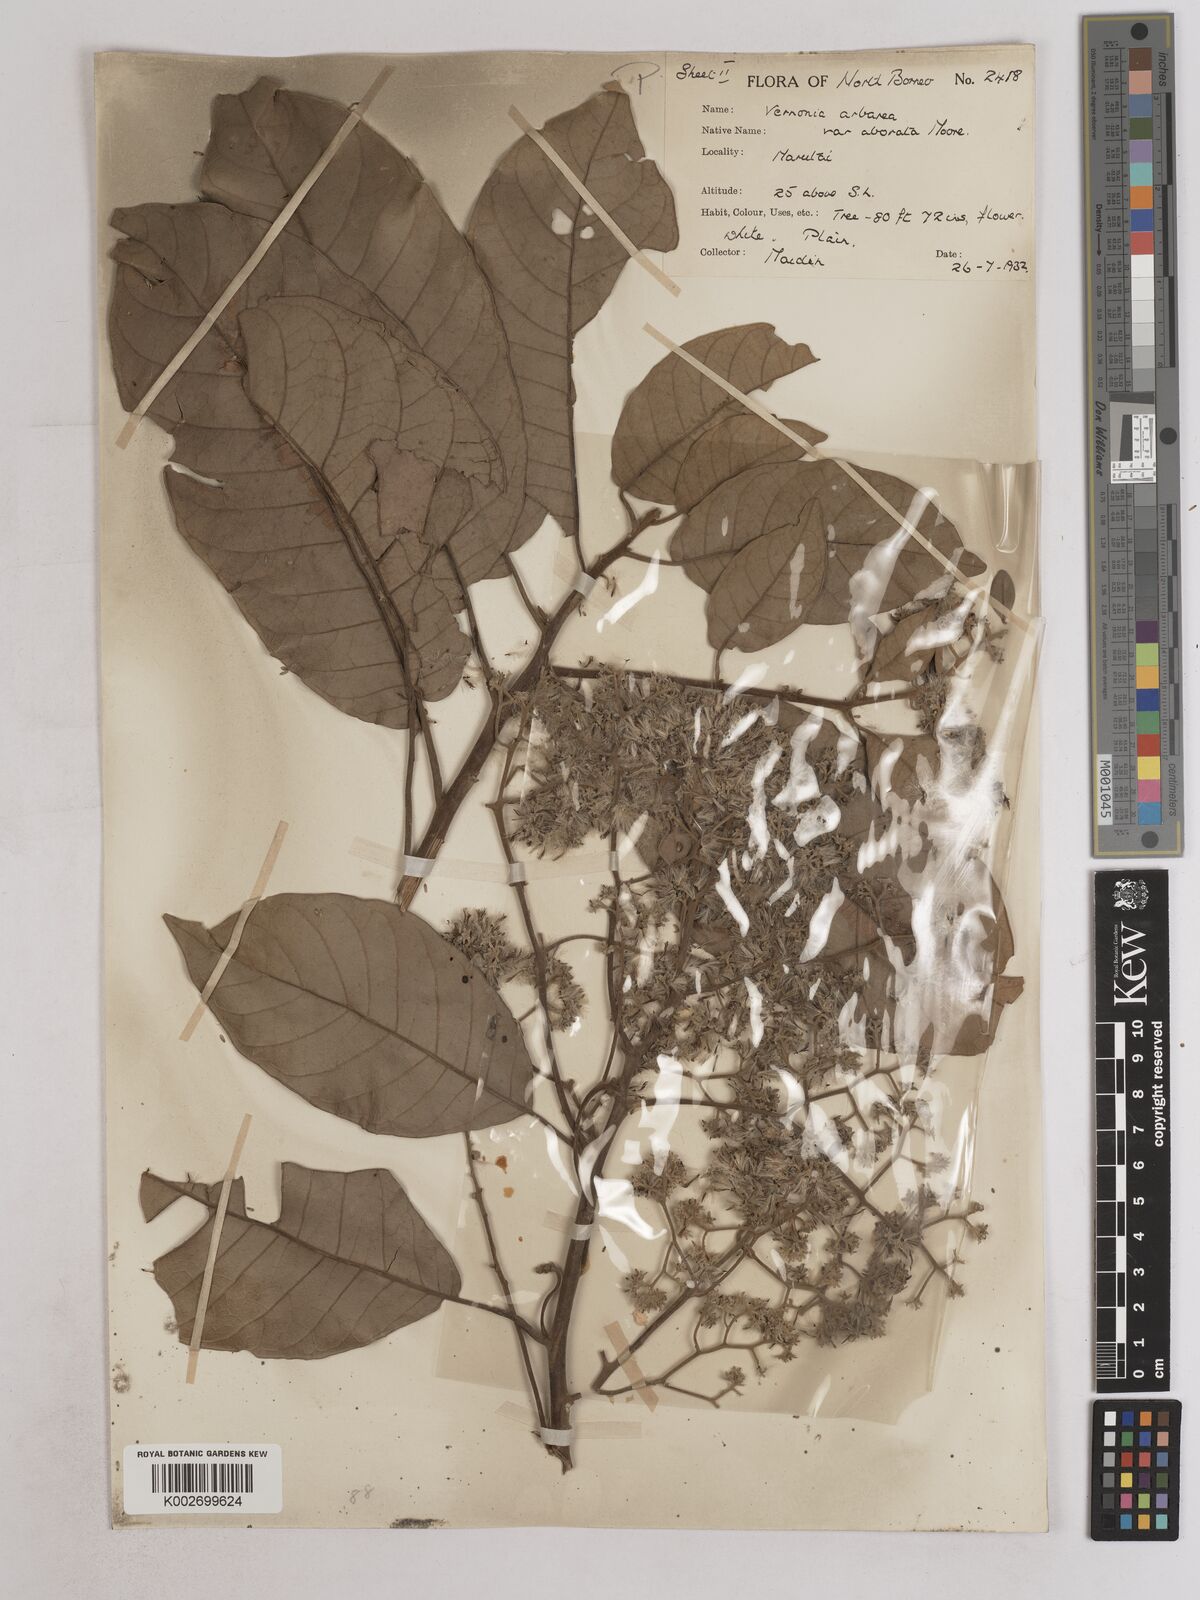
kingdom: Plantae
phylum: Tracheophyta
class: Magnoliopsida
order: Asterales
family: Asteraceae
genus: Strobocalyx
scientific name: Strobocalyx arborea
